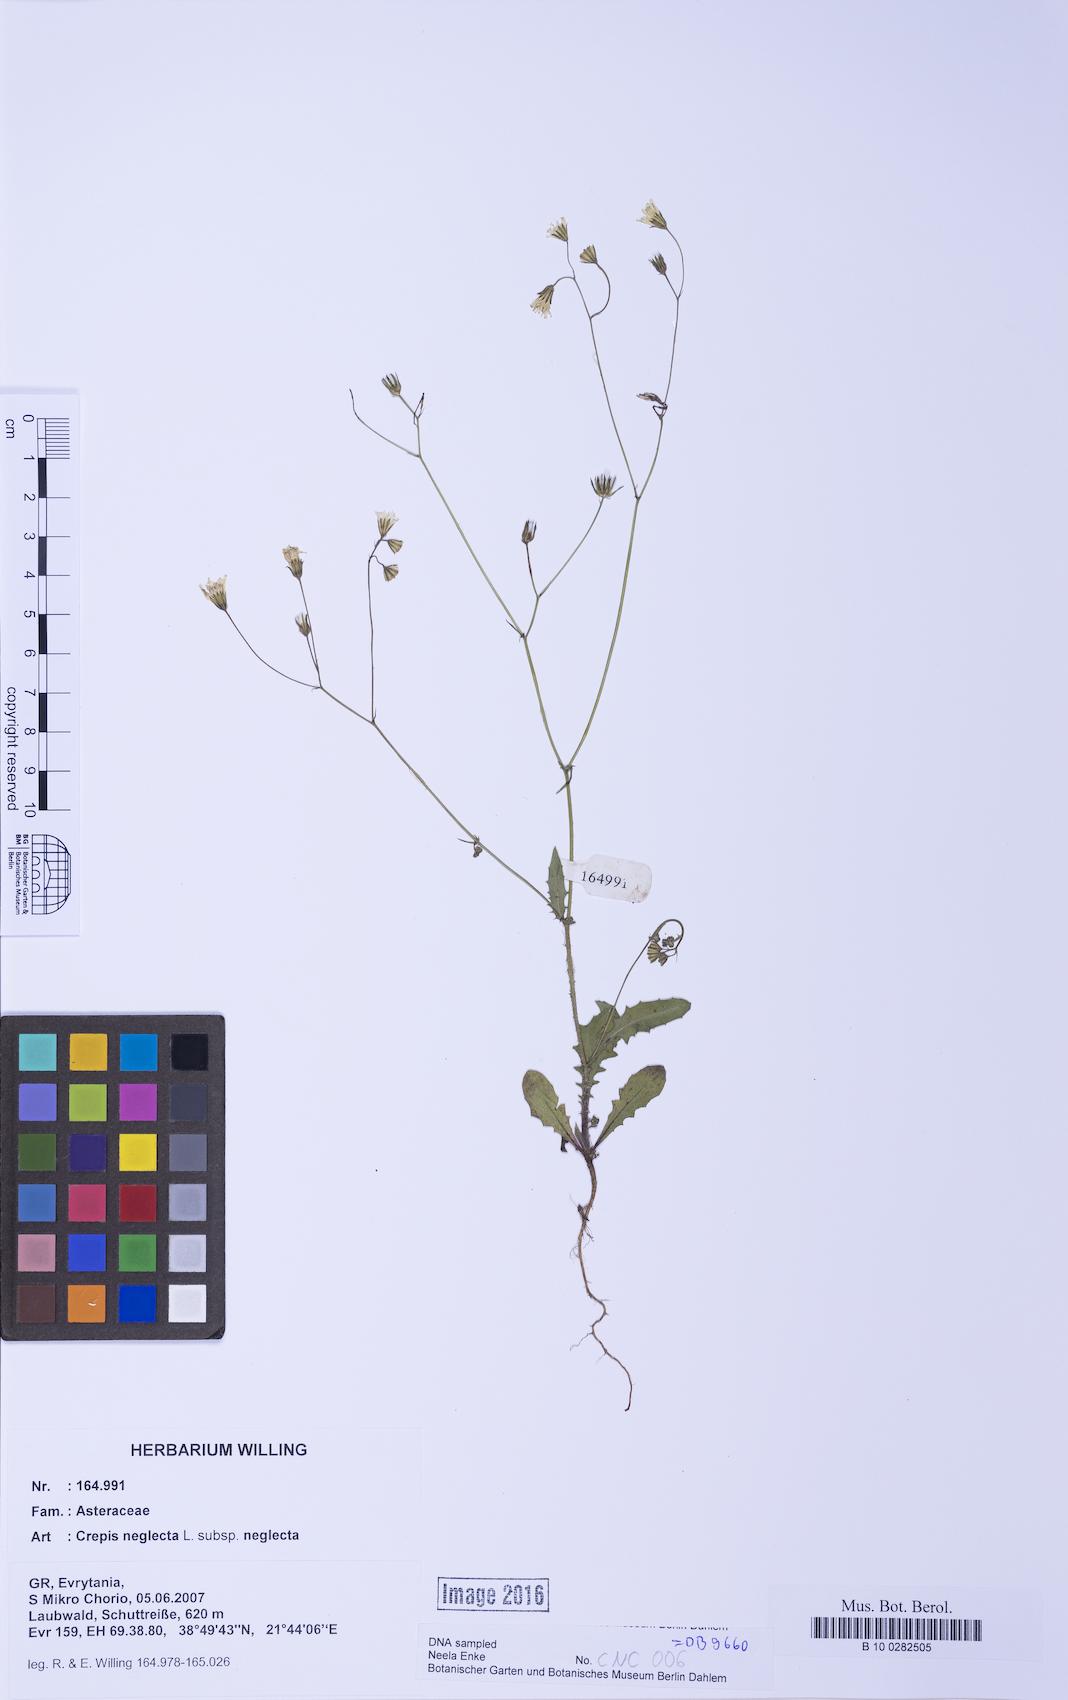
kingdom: Plantae
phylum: Tracheophyta
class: Magnoliopsida
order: Asterales
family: Asteraceae
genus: Crepis
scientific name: Crepis neglecta
